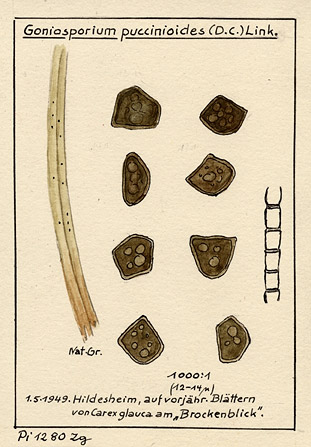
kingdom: Plantae
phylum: Tracheophyta
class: Liliopsida
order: Poales
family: Cyperaceae
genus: Carex
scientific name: Carex
